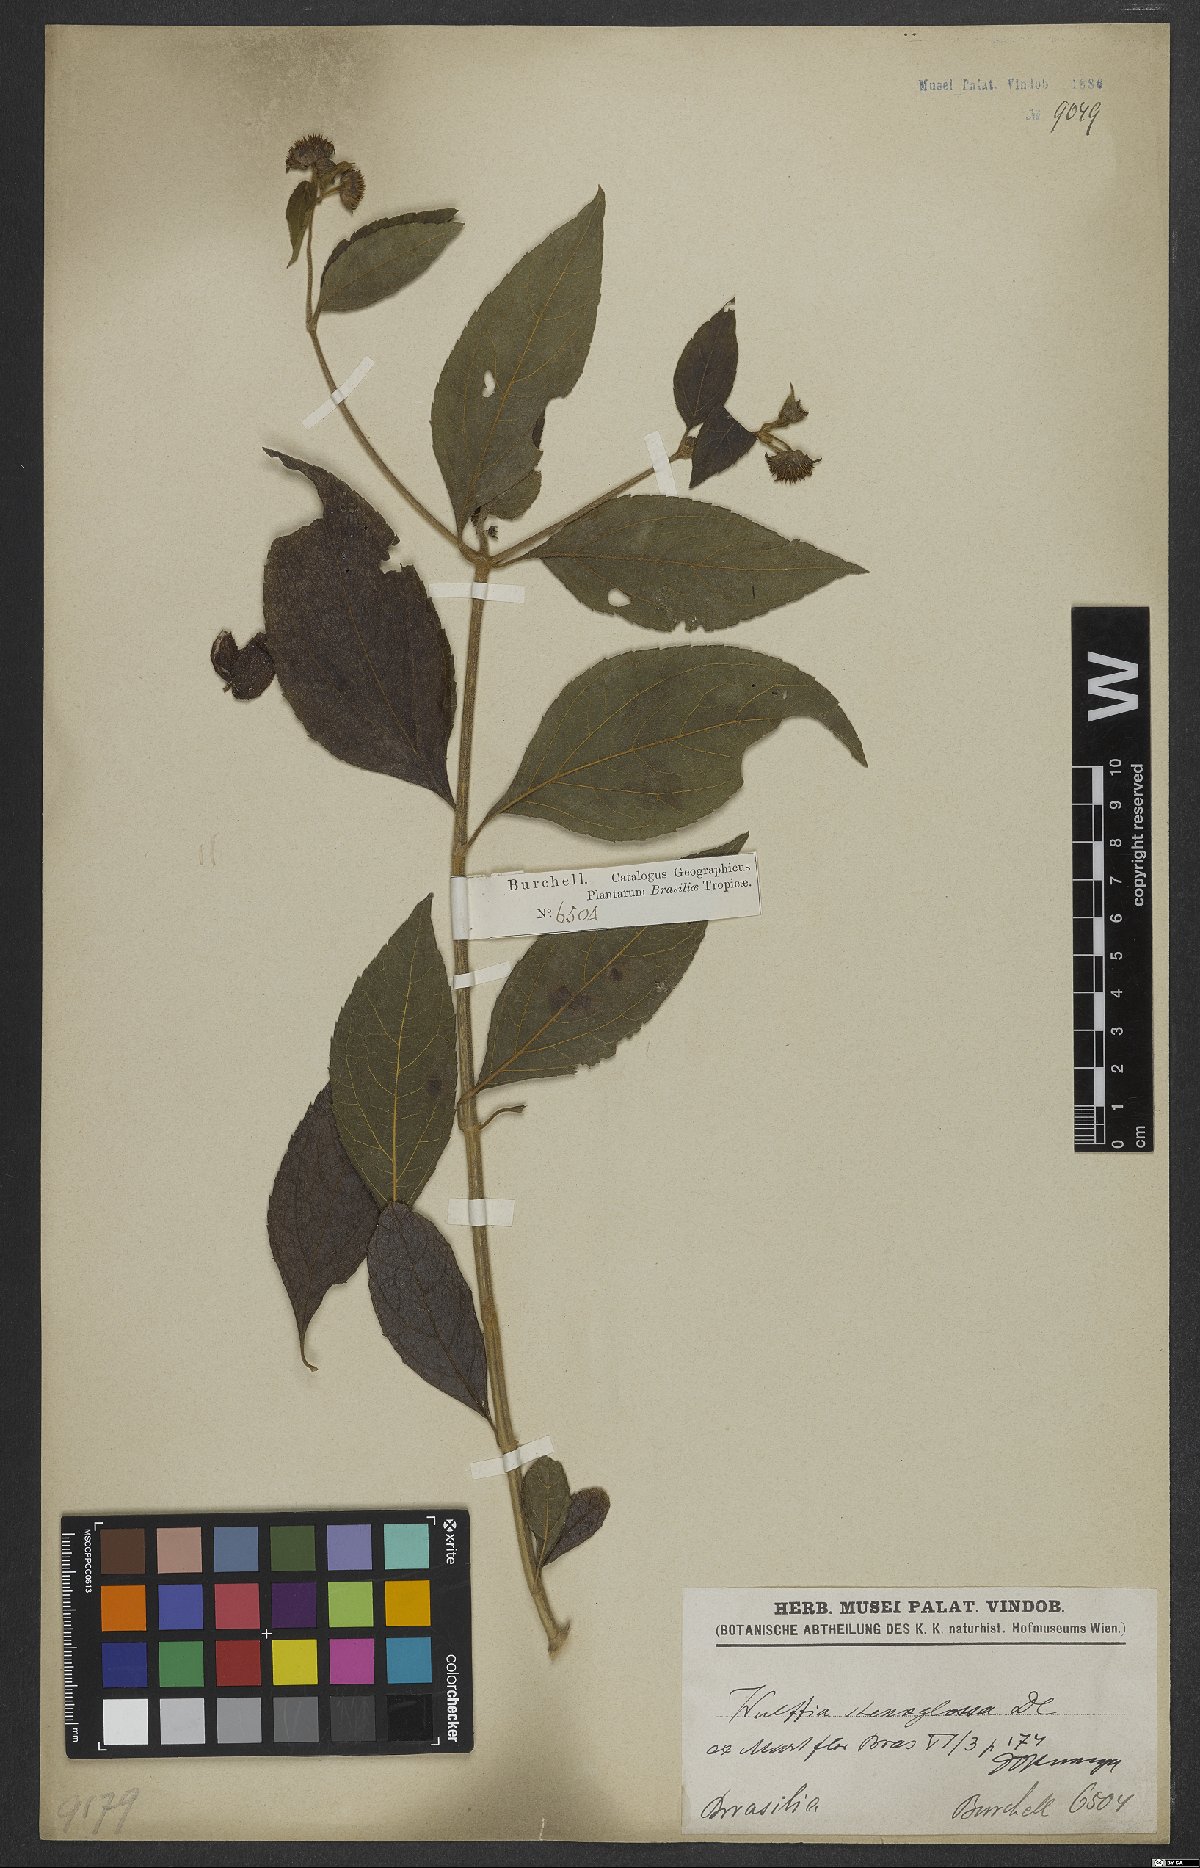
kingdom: Plantae
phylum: Tracheophyta
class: Magnoliopsida
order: Asterales
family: Asteraceae
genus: Tilesia
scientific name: Tilesia
